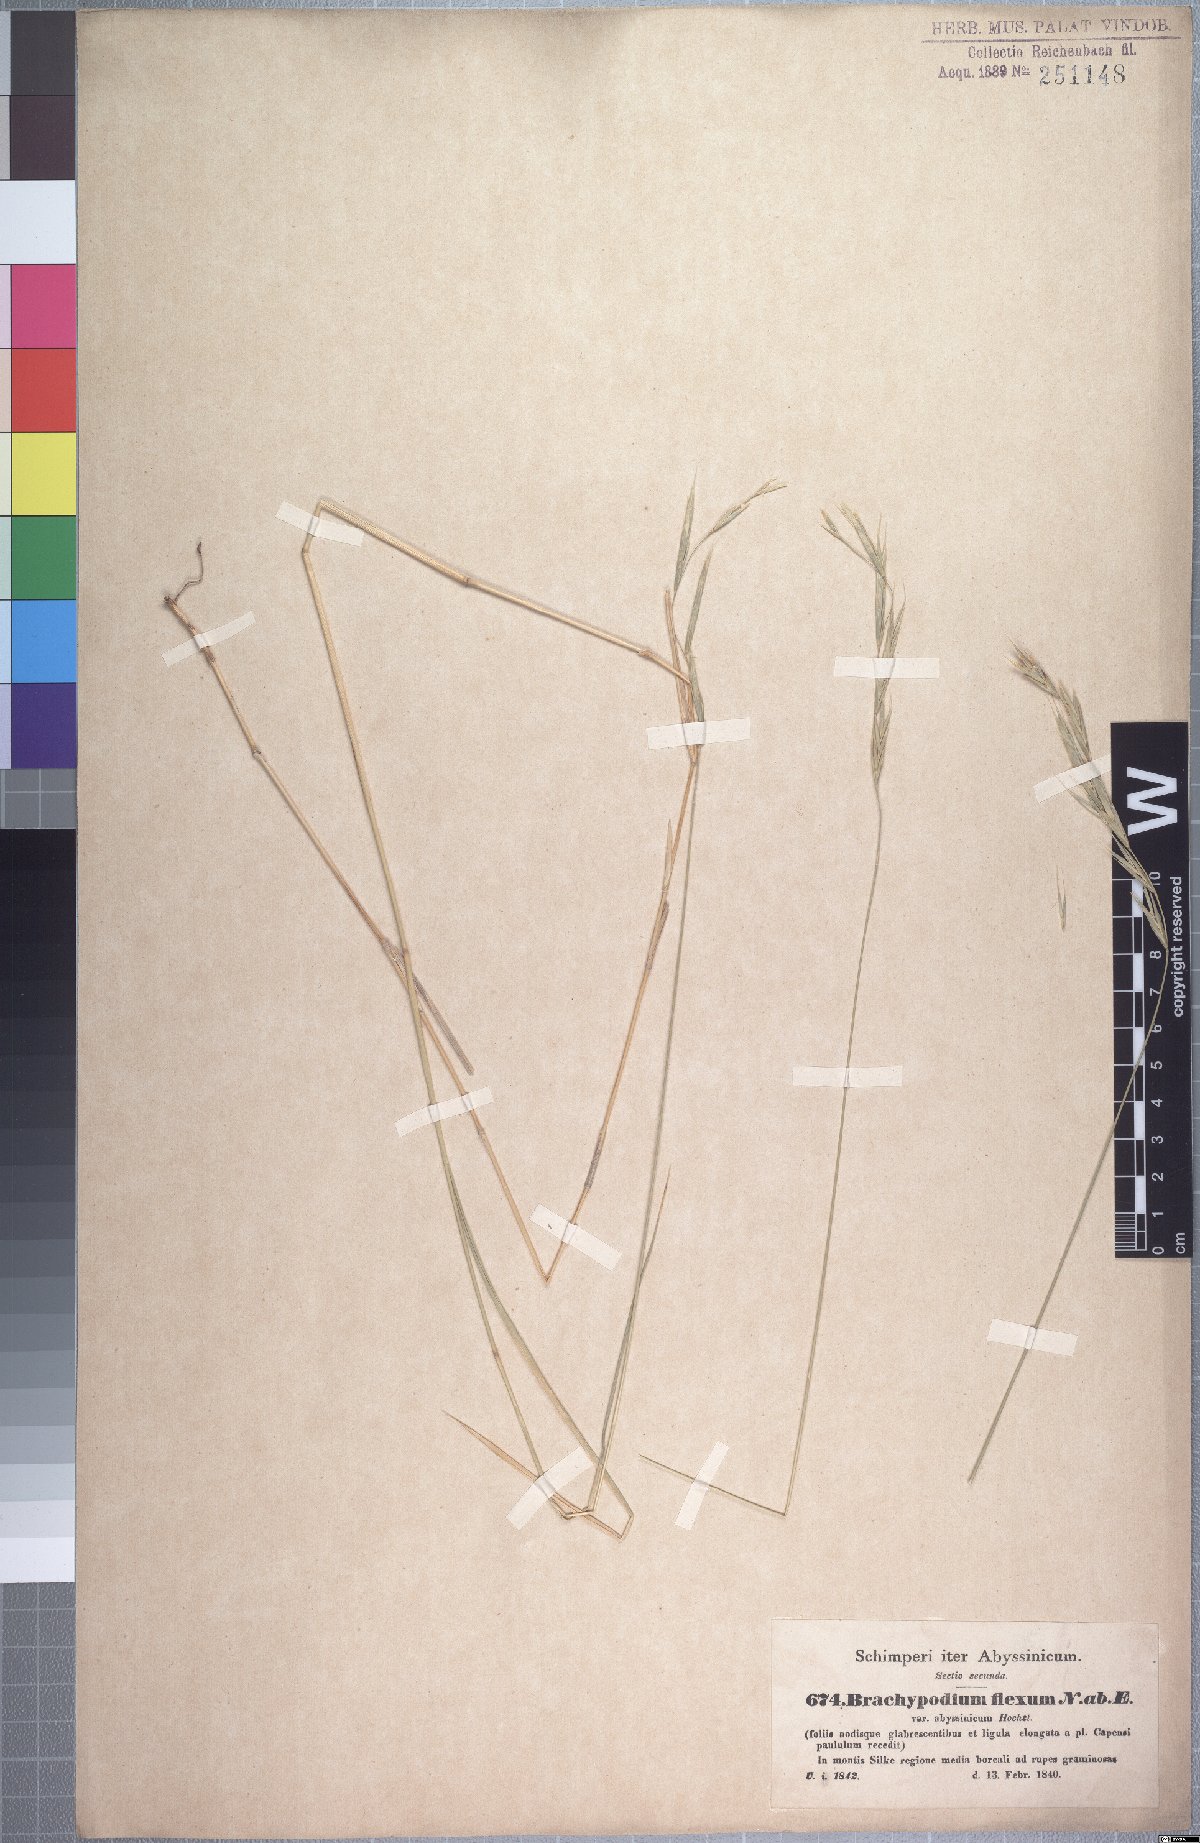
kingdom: Plantae
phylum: Tracheophyta
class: Liliopsida
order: Poales
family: Poaceae
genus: Brachypodium
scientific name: Brachypodium flexum
